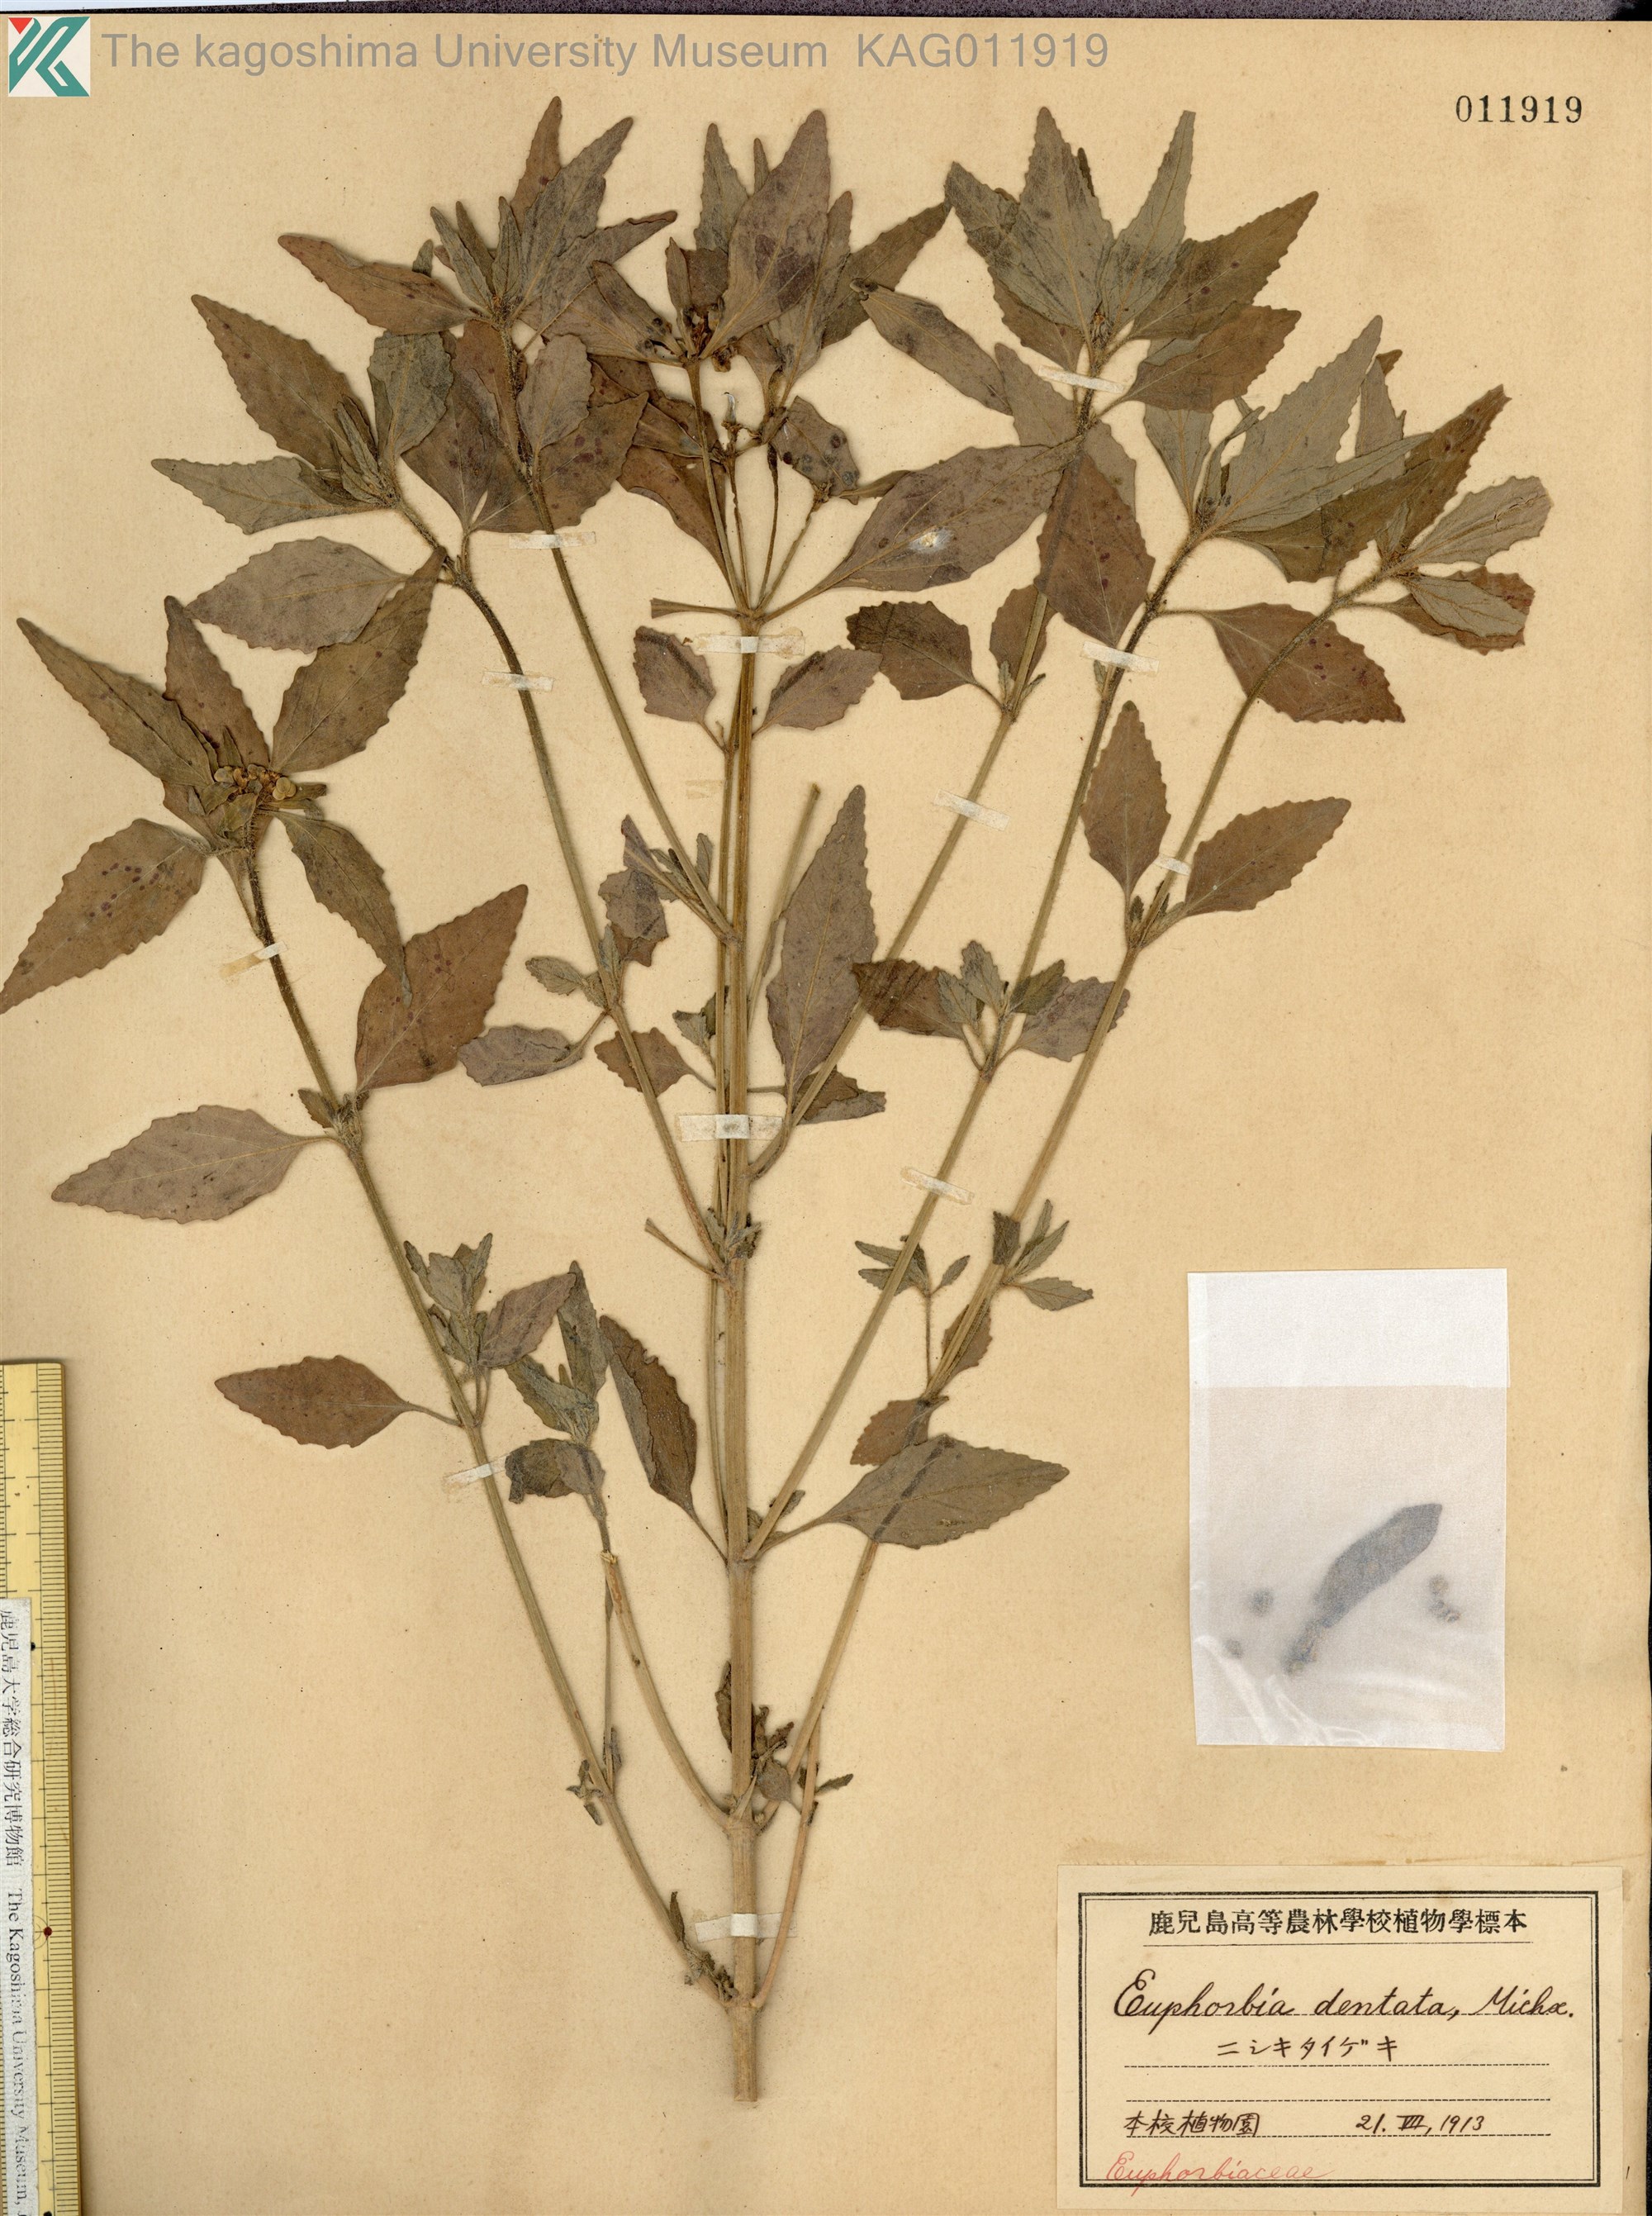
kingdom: Plantae
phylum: Tracheophyta
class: Magnoliopsida
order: Malpighiales
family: Euphorbiaceae
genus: Euphorbia
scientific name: Euphorbia dentata
